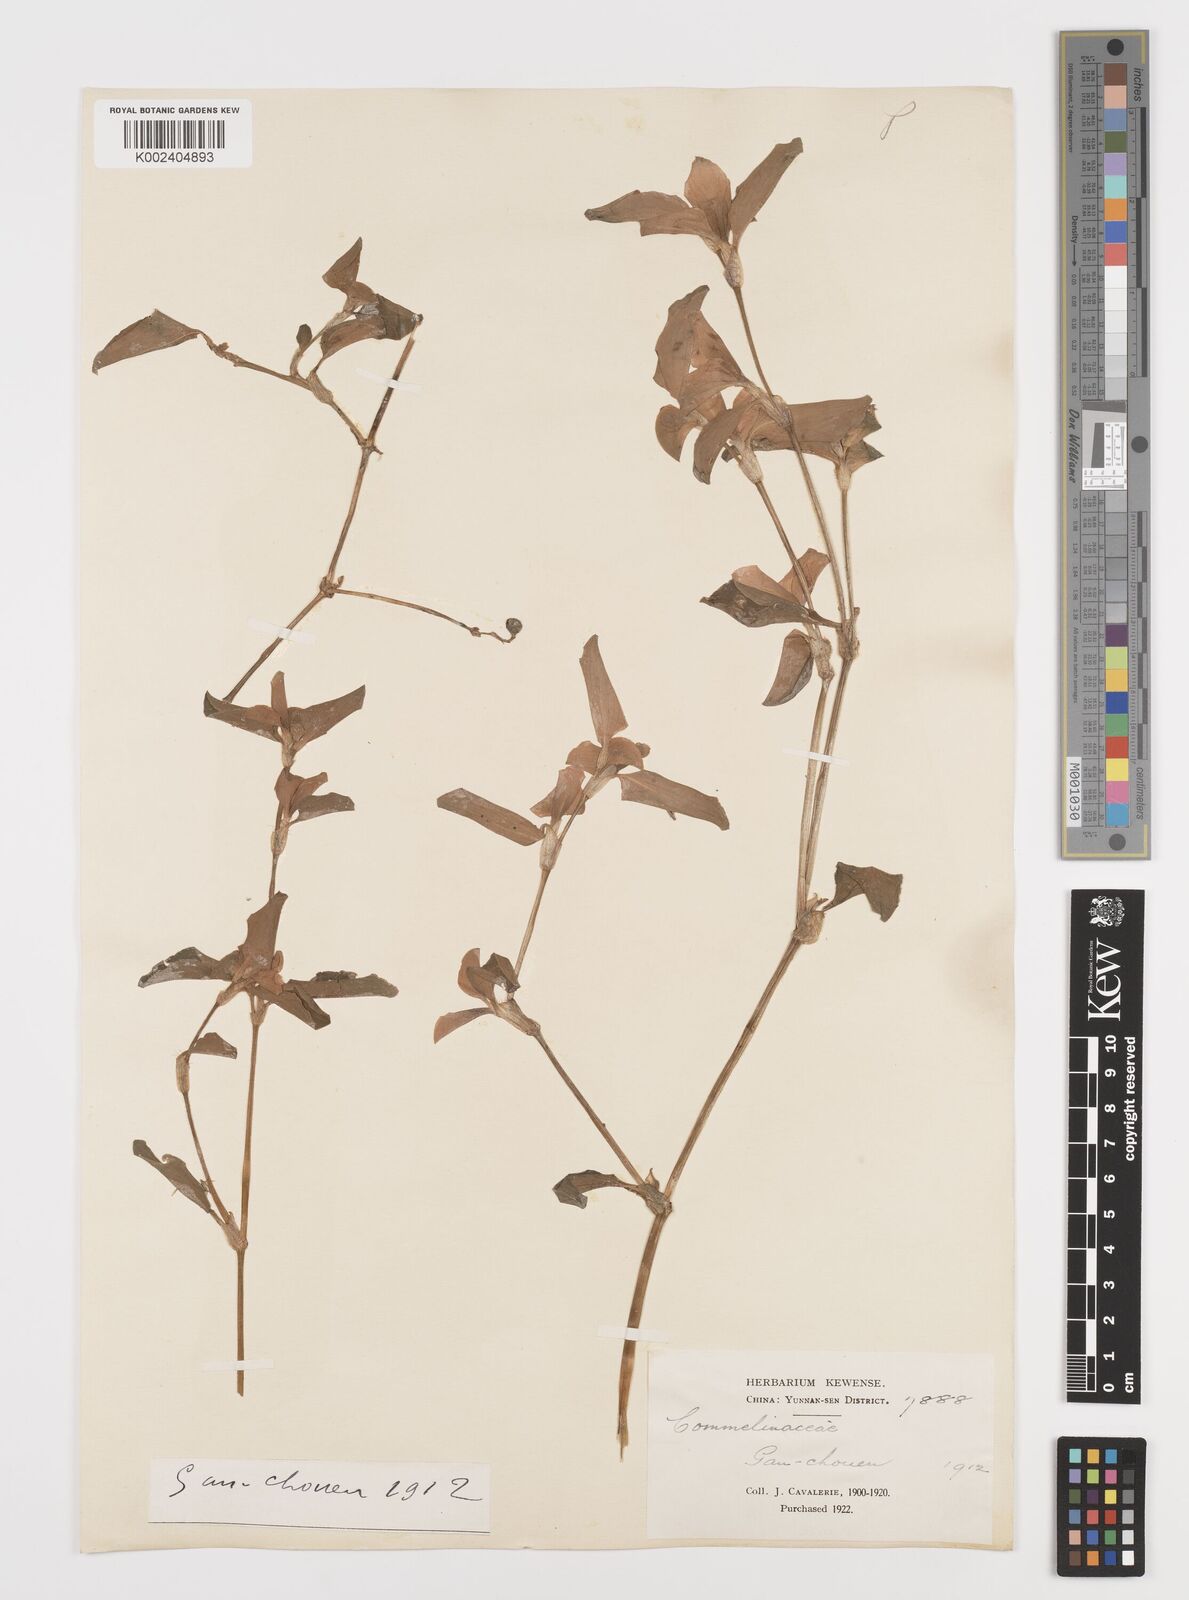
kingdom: Plantae
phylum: Tracheophyta
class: Liliopsida
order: Commelinales
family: Commelinaceae
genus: Commelina
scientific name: Commelina
